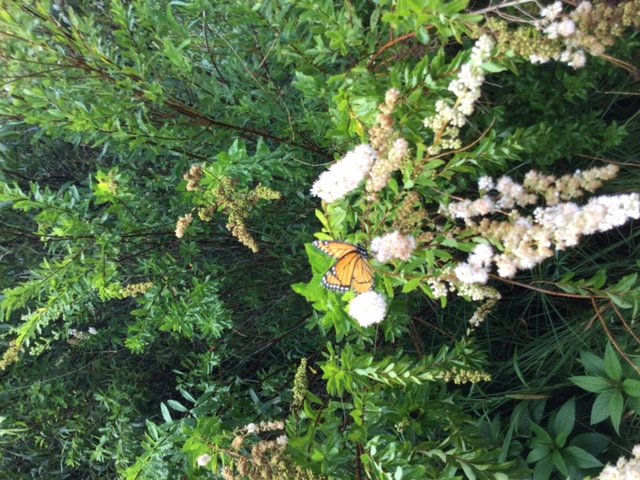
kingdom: Animalia
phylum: Arthropoda
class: Insecta
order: Lepidoptera
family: Nymphalidae
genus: Limenitis
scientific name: Limenitis archippus
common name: Viceroy
